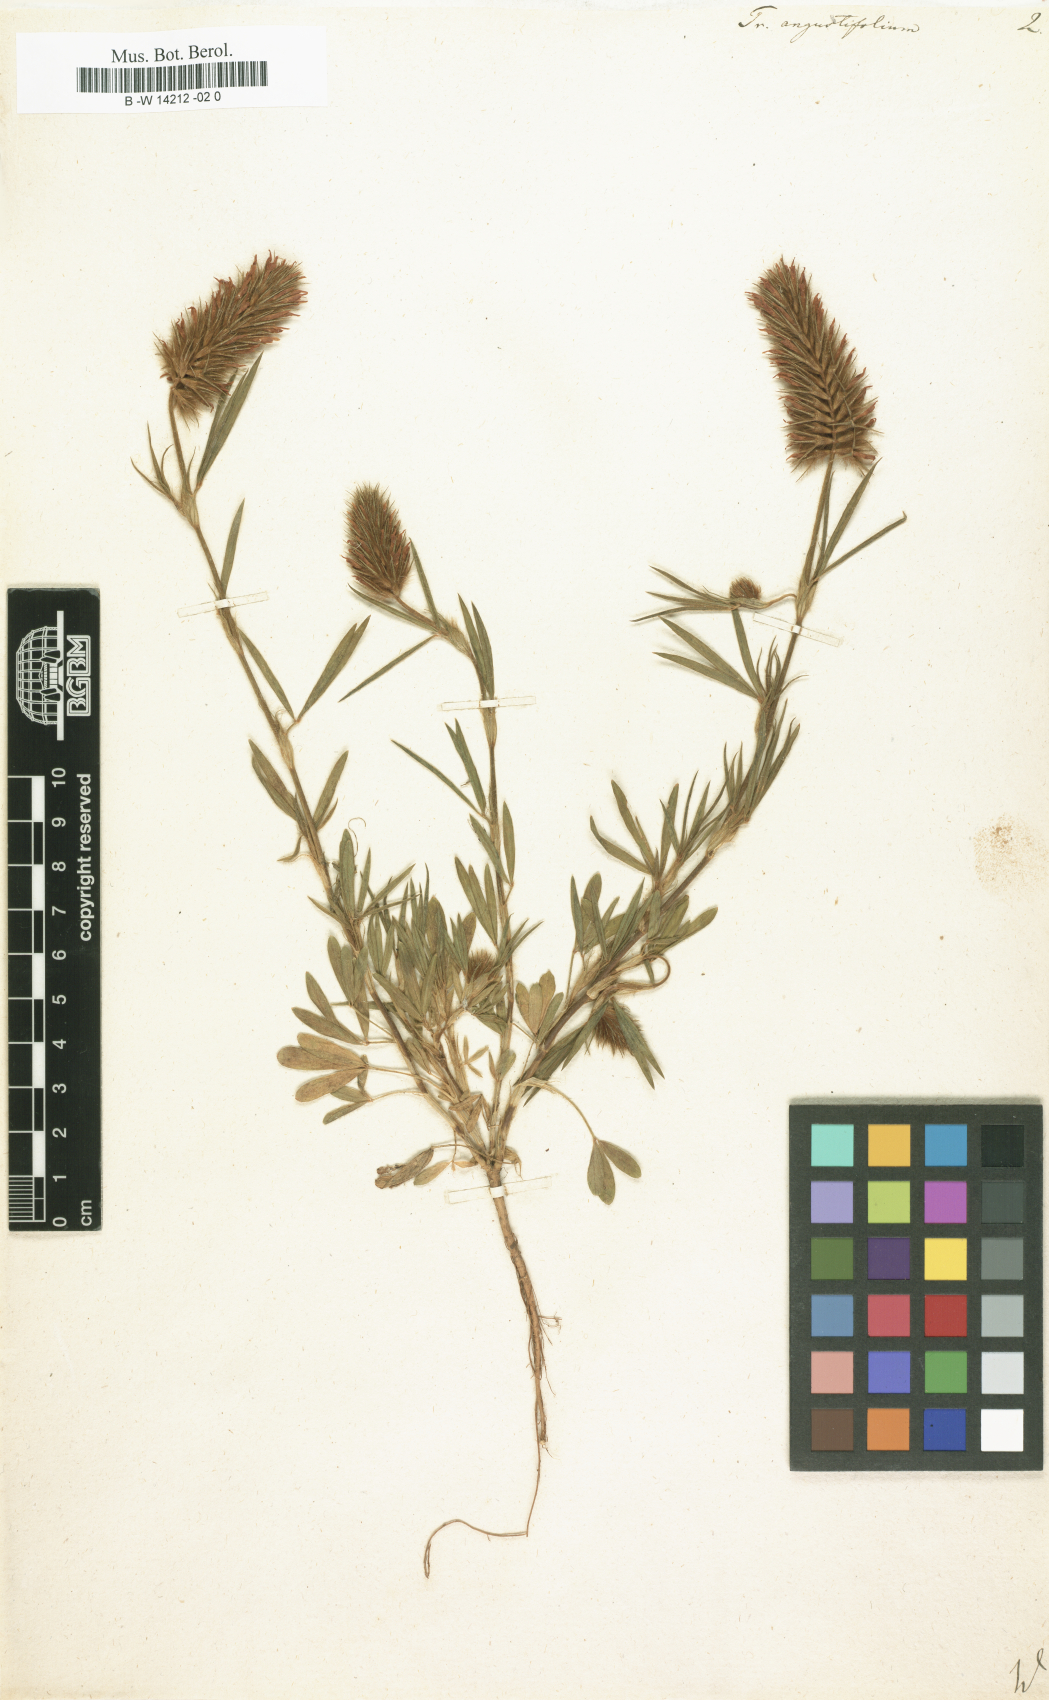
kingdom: Plantae
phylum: Tracheophyta
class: Magnoliopsida
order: Fabales
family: Fabaceae
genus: Trifolium
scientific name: Trifolium angustifolium
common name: Narrow clover
